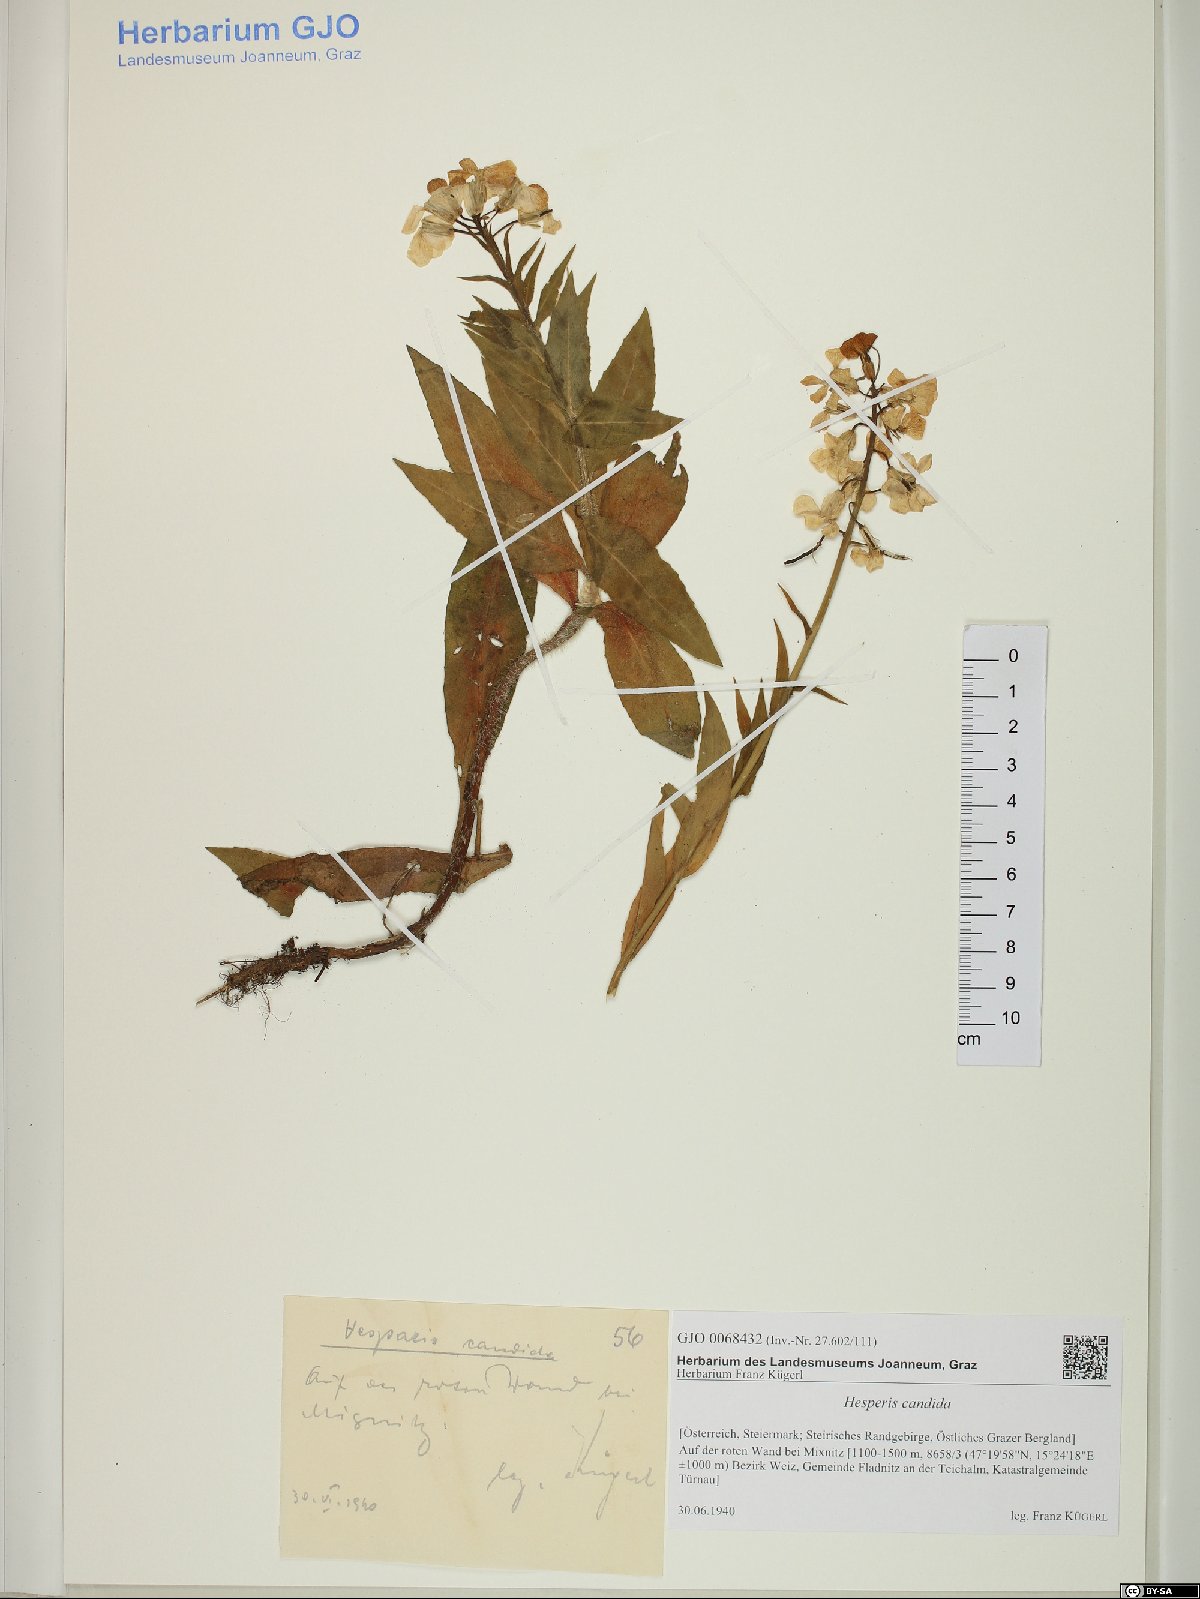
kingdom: Plantae
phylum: Tracheophyta
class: Magnoliopsida
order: Brassicales
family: Brassicaceae
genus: Hesperis
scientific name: Hesperis matronalis
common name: Dame's-violet
